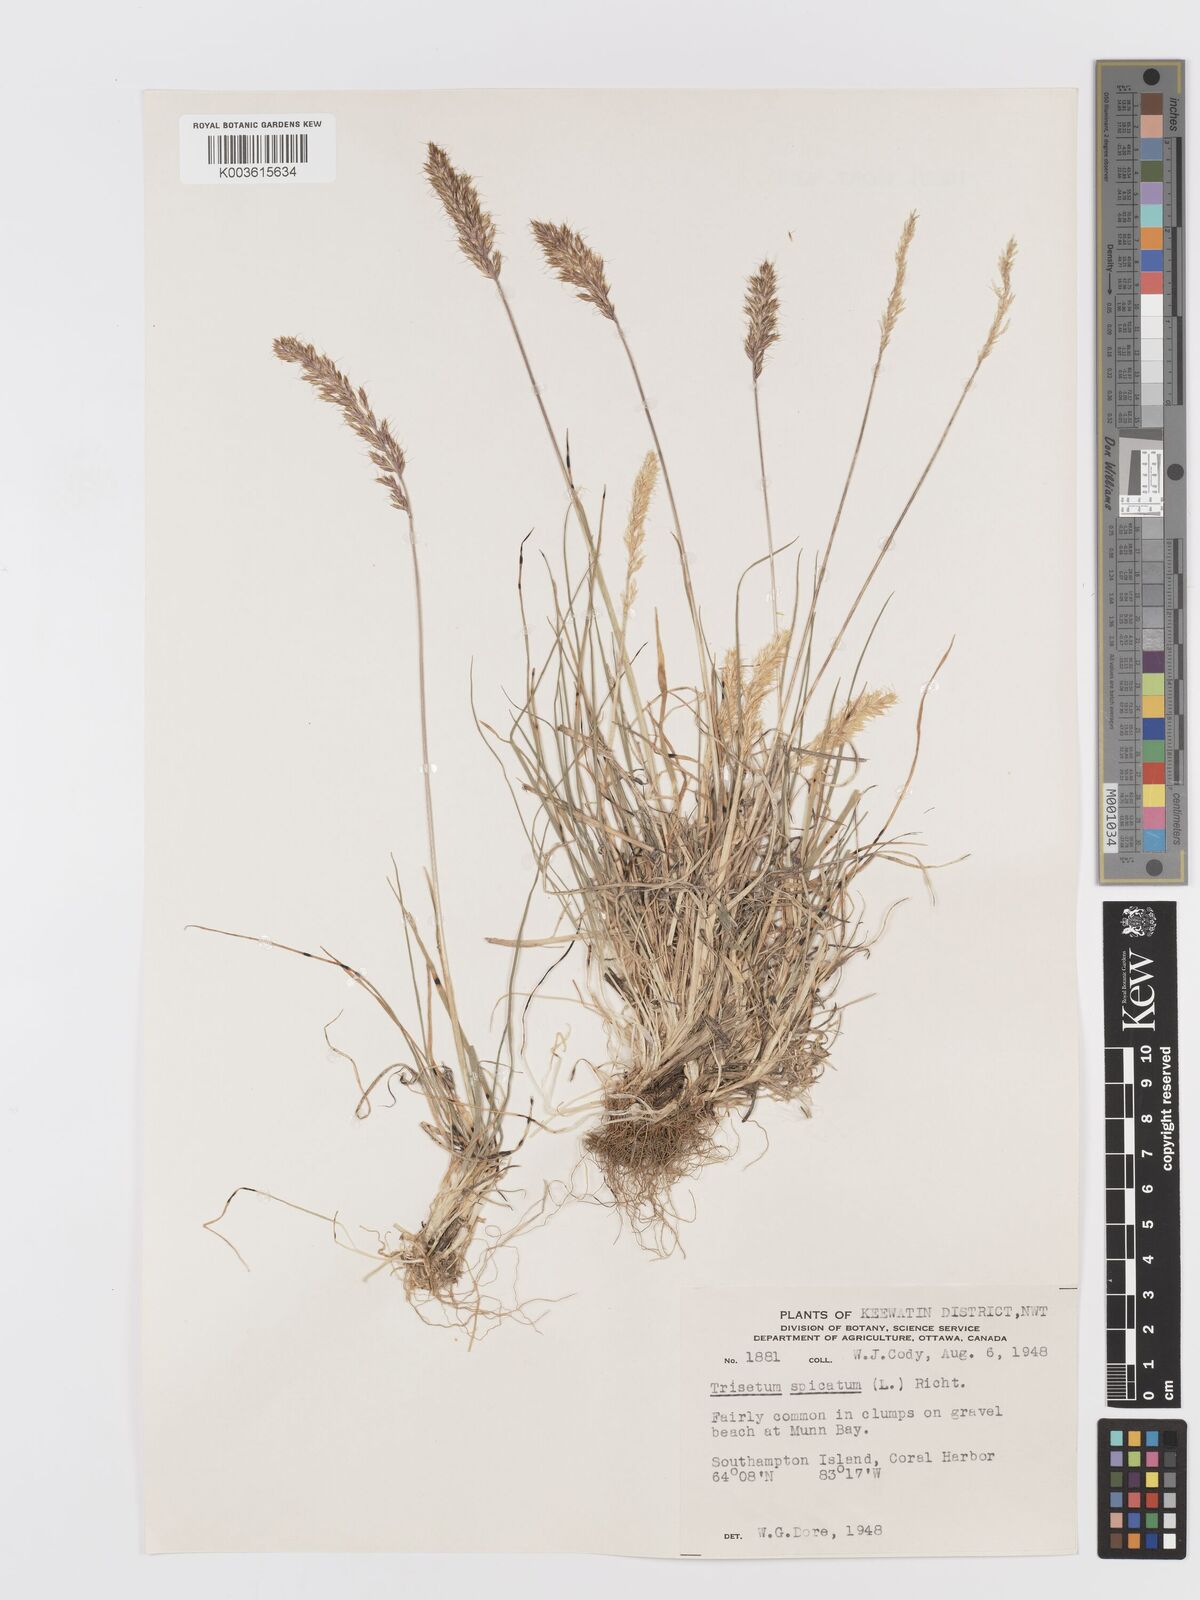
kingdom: Plantae
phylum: Tracheophyta
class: Liliopsida
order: Poales
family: Poaceae
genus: Koeleria
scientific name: Koeleria spicata
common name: Mountain trisetum
